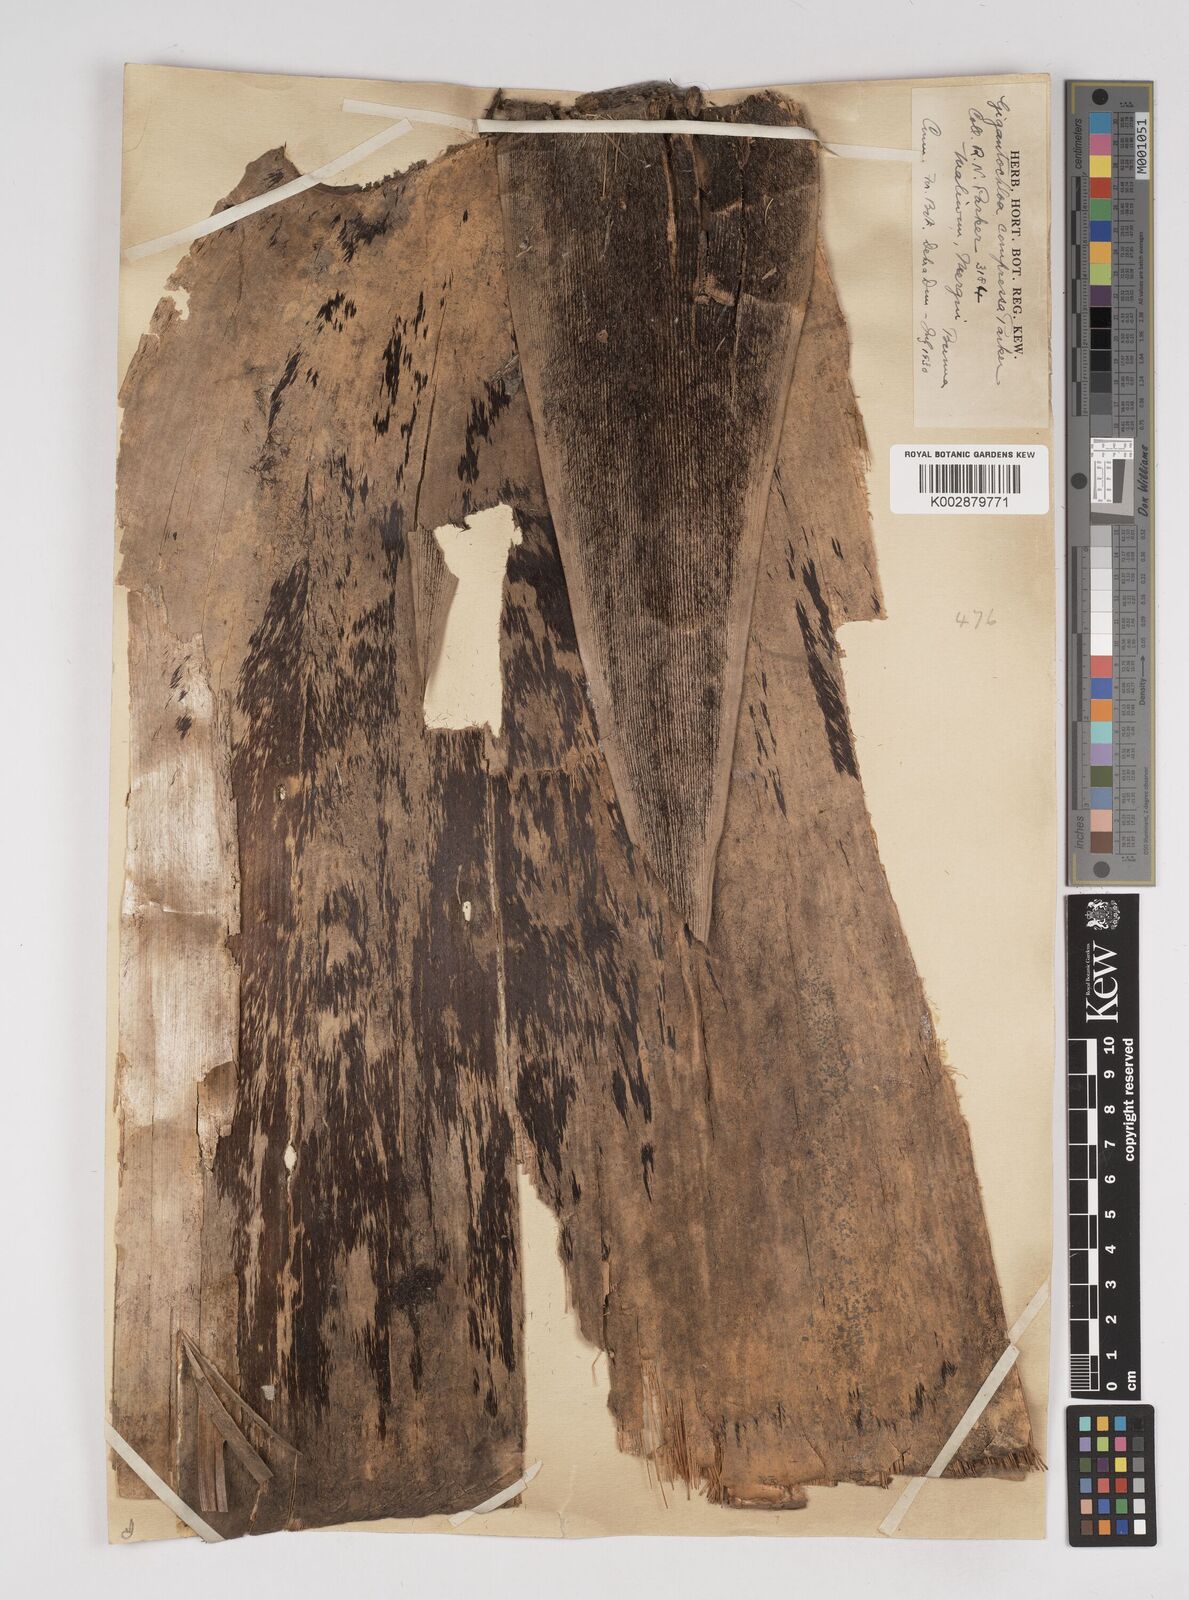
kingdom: Plantae
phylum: Tracheophyta
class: Liliopsida
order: Poales
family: Poaceae
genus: Gigantochloa
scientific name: Gigantochloa compressa
